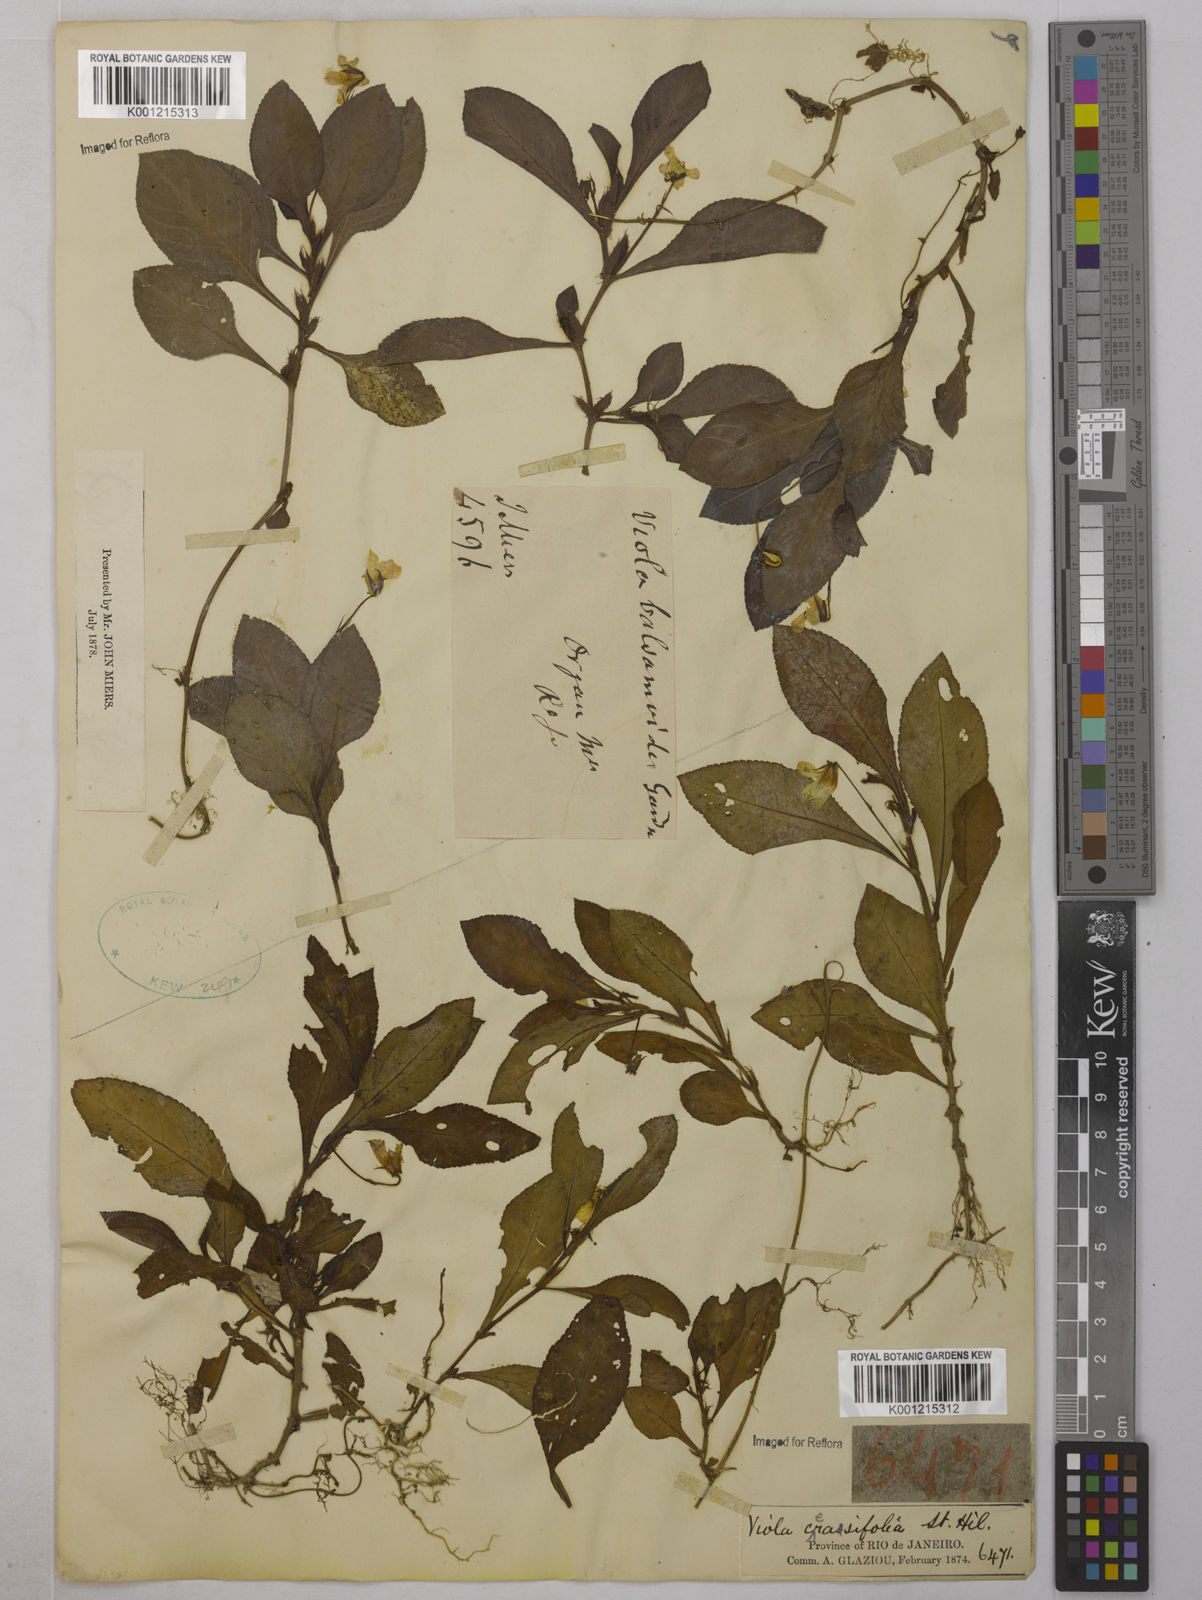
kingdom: Plantae
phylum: Tracheophyta
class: Magnoliopsida
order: Malpighiales
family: Violaceae
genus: Viola
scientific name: Viola cerasifolia
